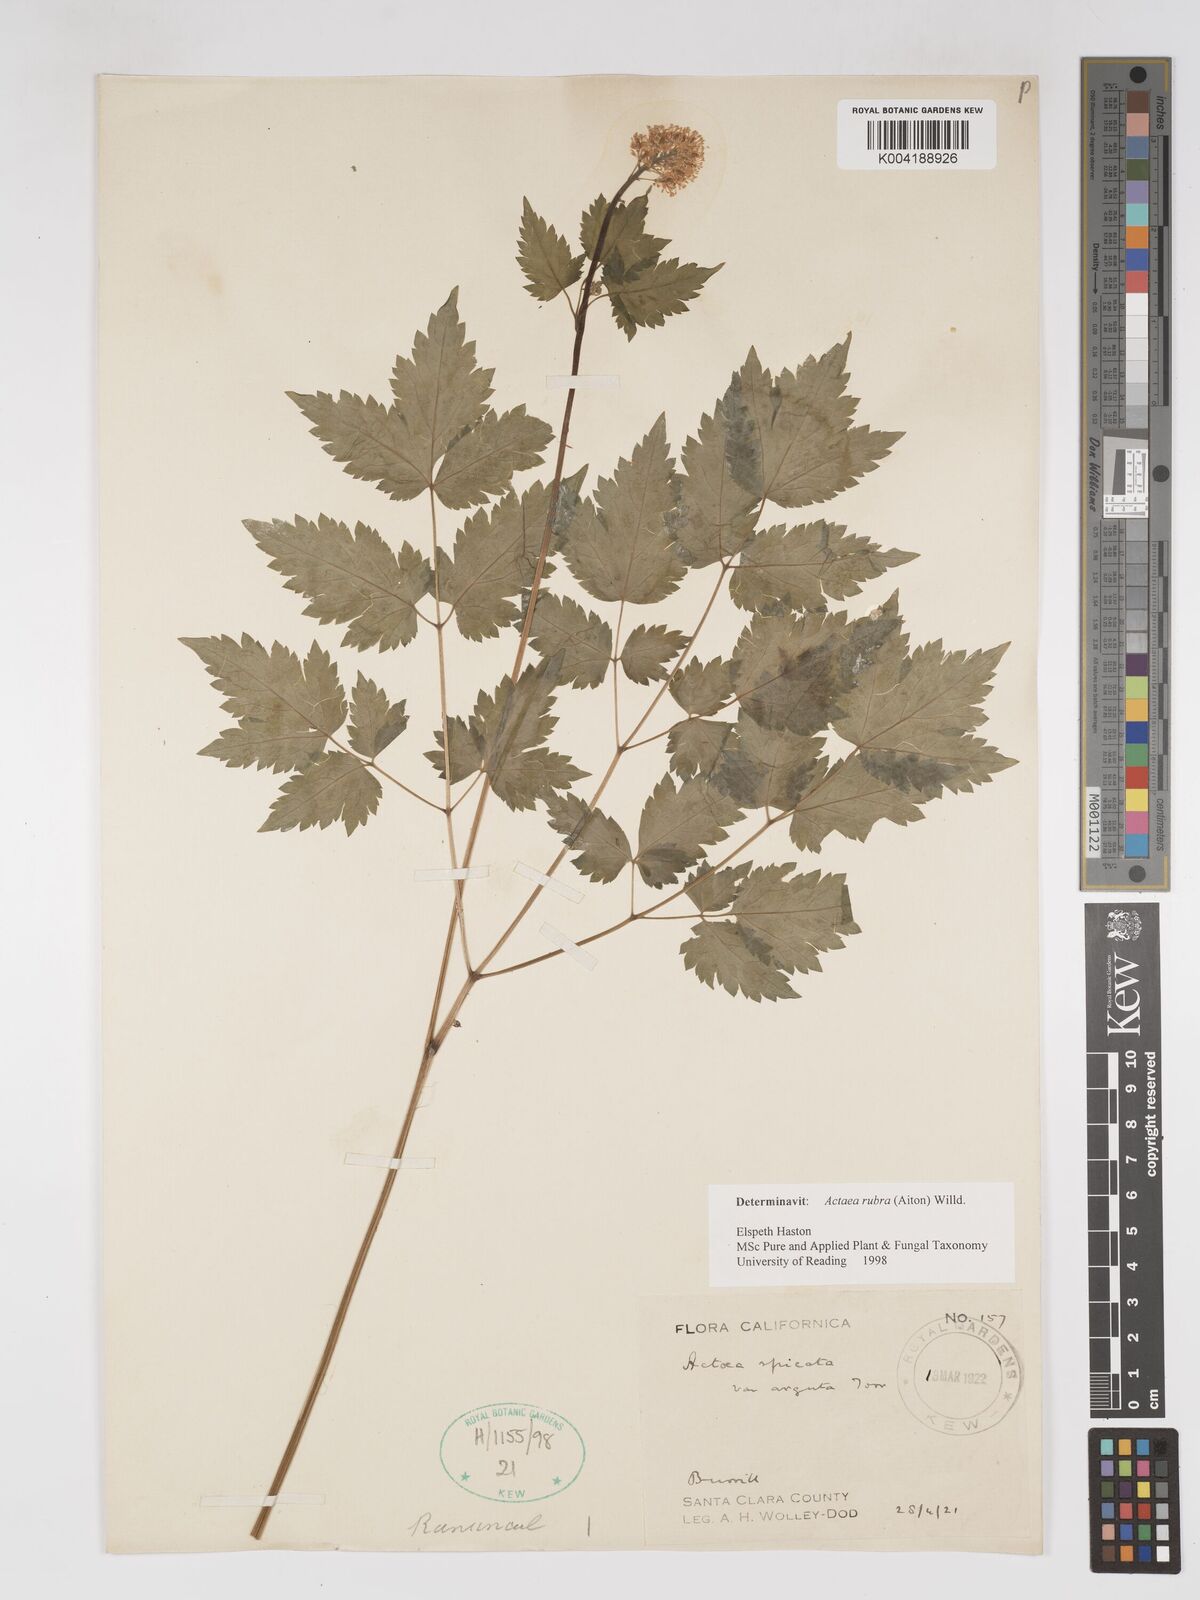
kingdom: Plantae
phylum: Tracheophyta
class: Magnoliopsida
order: Ranunculales
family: Ranunculaceae
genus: Actaea
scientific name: Actaea rubra
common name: Red baneberry
